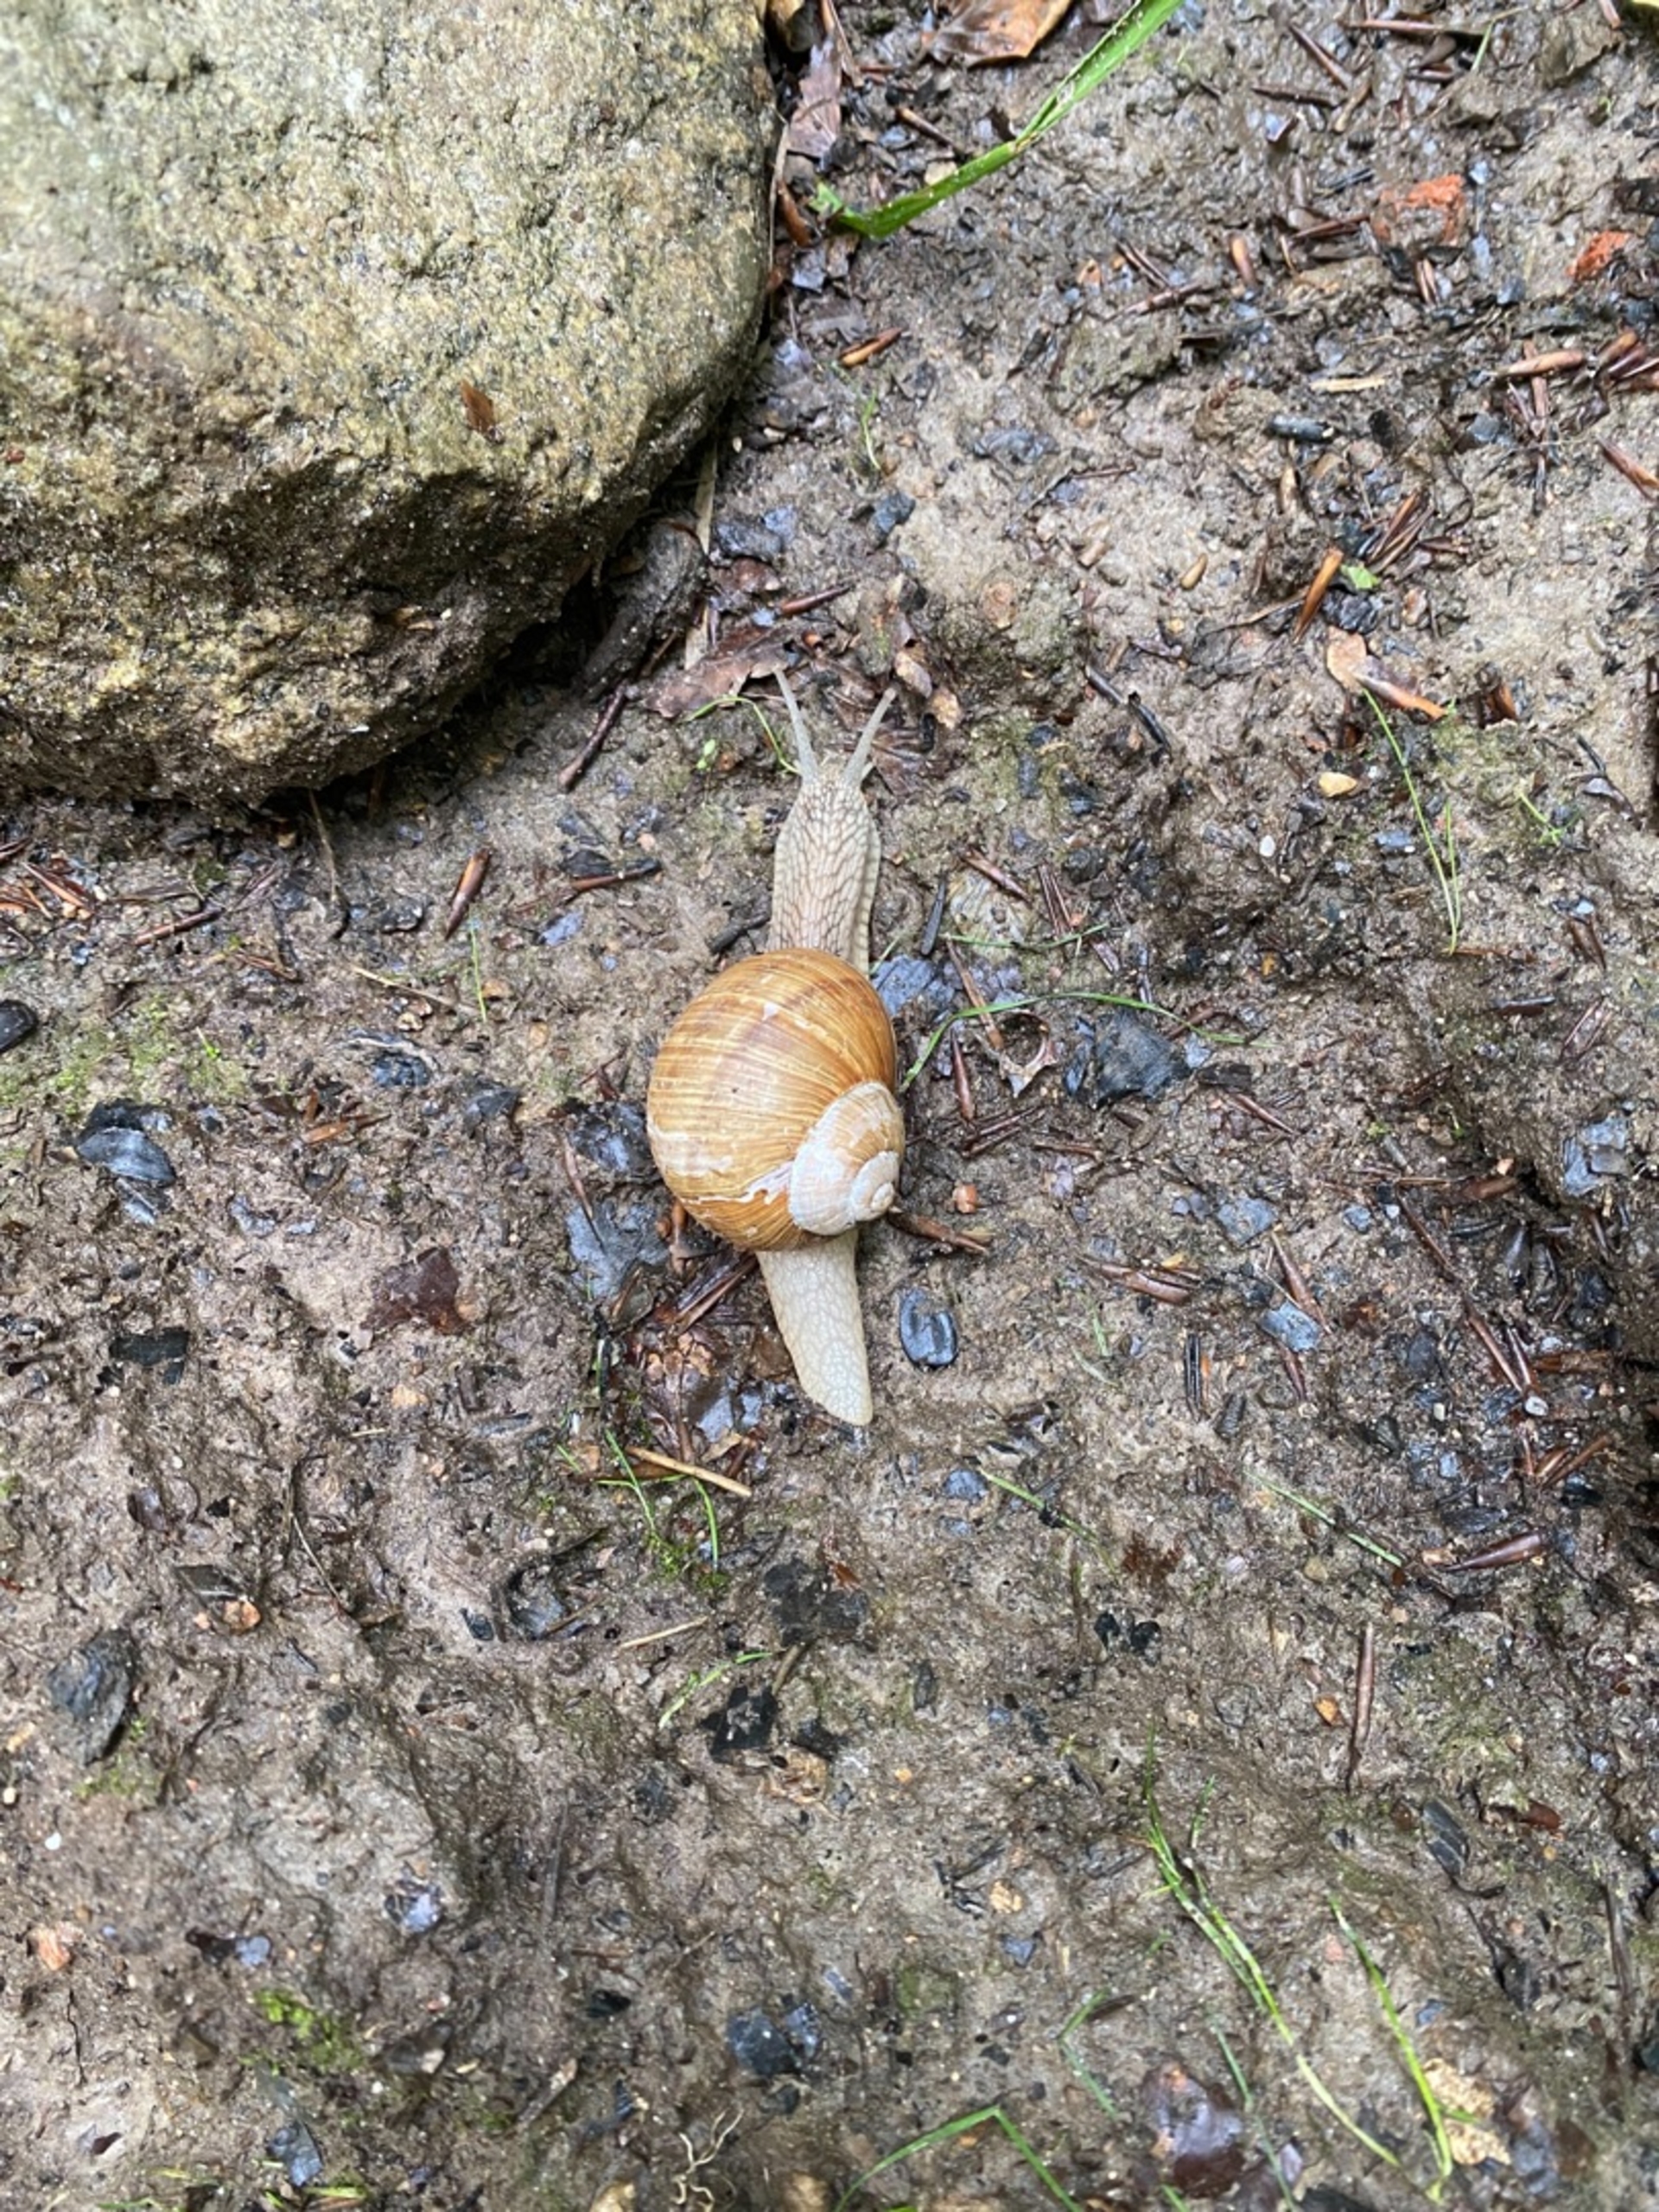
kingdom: Animalia
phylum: Mollusca
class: Gastropoda
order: Stylommatophora
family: Helicidae
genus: Helix
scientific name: Helix pomatia
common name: Vinbjergsnegl
